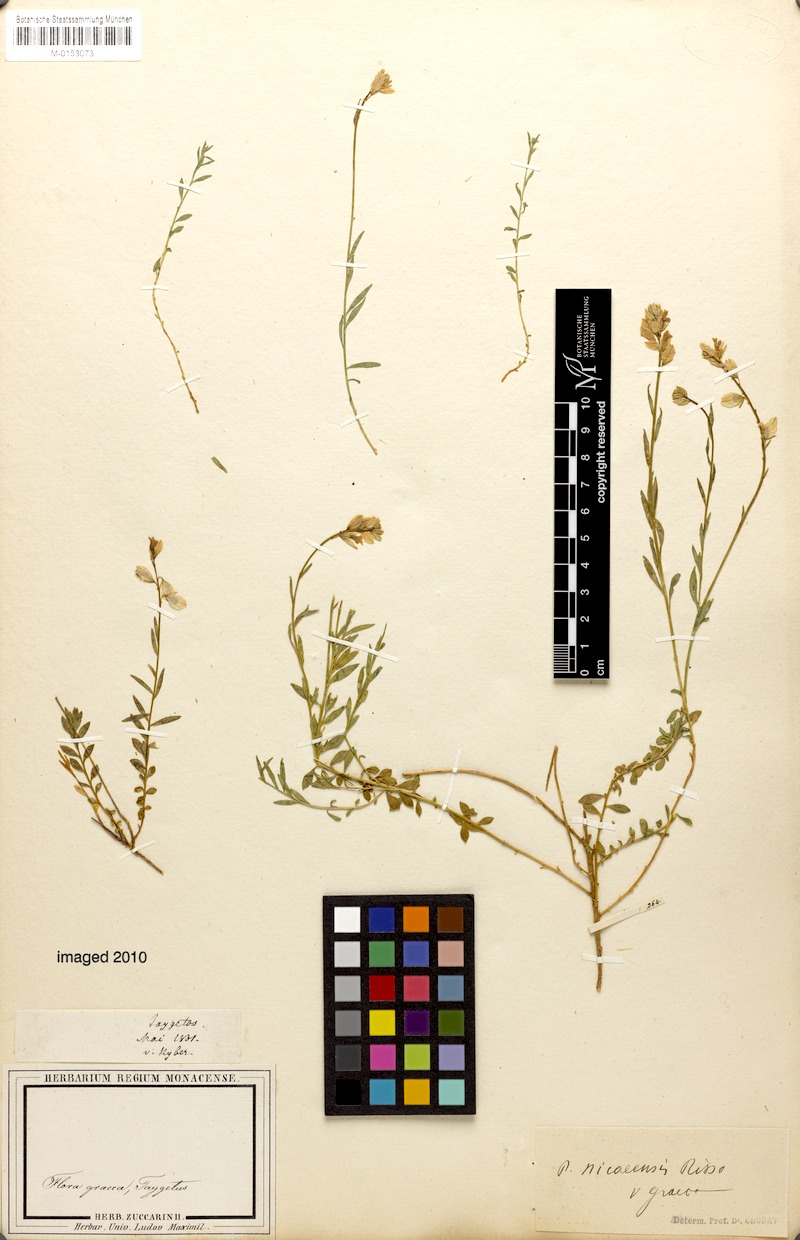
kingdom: Plantae
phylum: Tracheophyta
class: Magnoliopsida
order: Fabales
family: Polygalaceae
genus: Polygala
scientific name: Polygala nicaeensis
